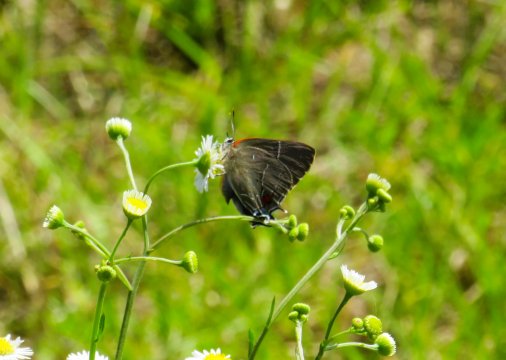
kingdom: Animalia
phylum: Arthropoda
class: Insecta
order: Lepidoptera
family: Lycaenidae
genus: Parrhasius
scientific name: Parrhasius m-album
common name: White-m Hairstreak
